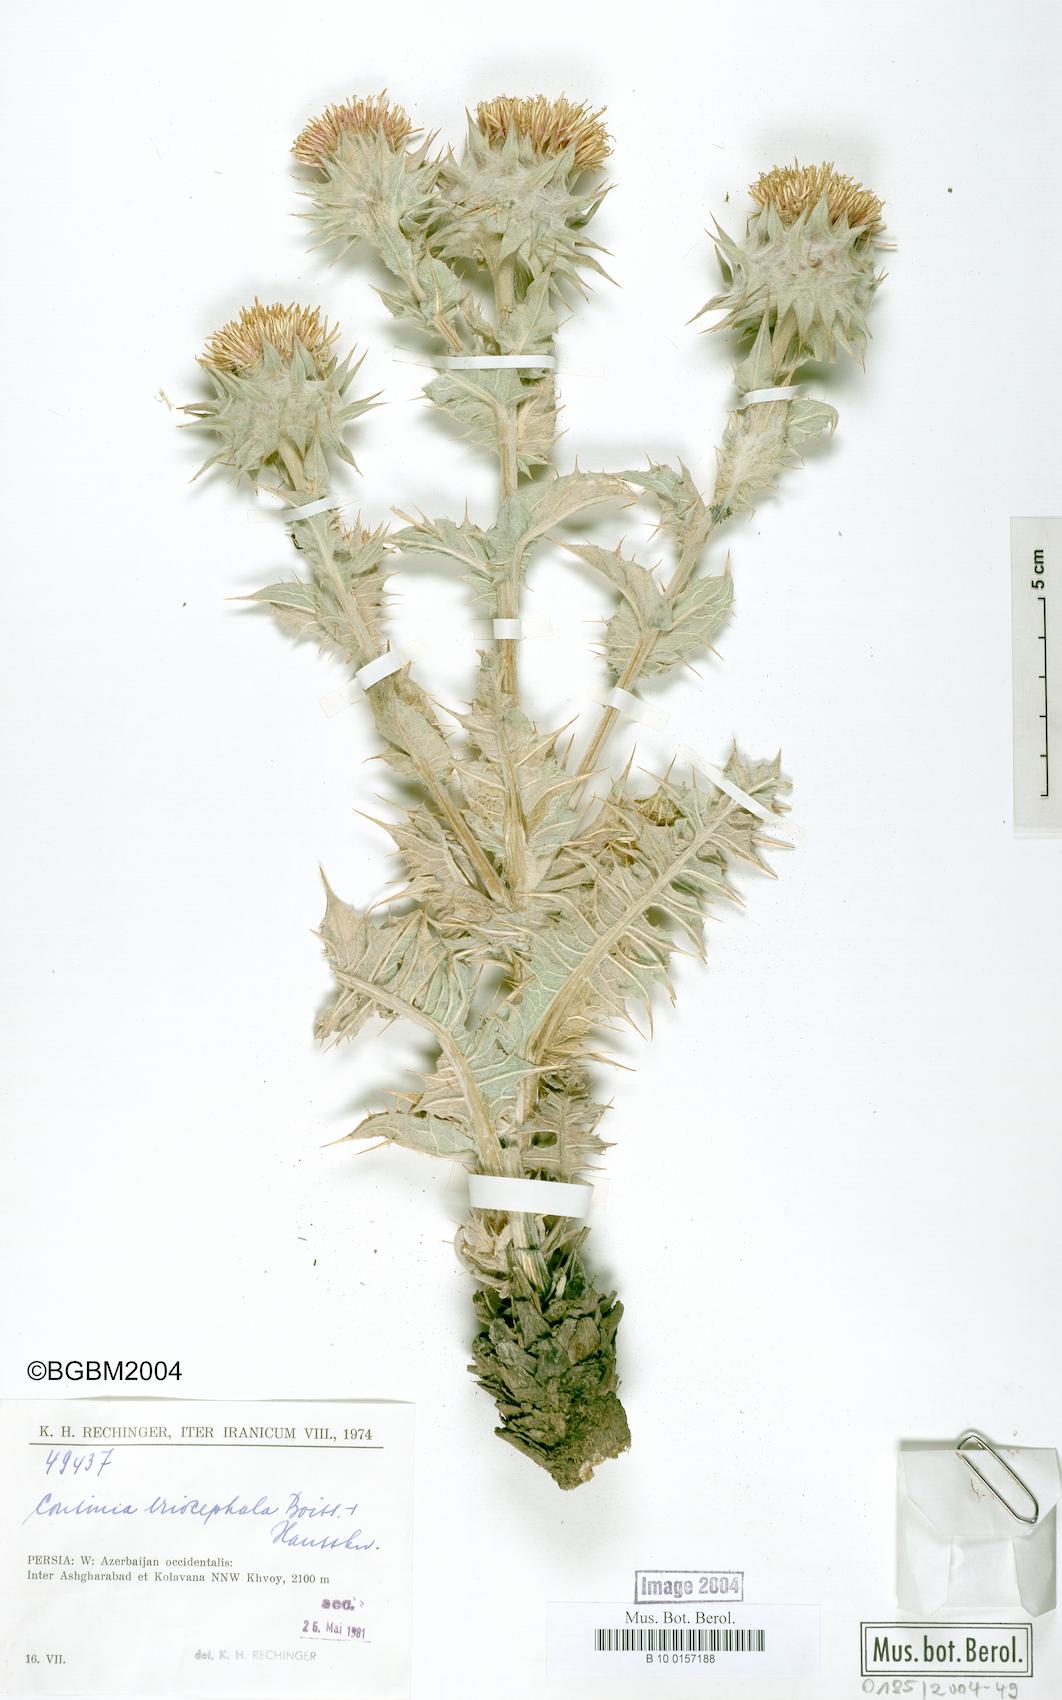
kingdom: Plantae
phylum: Tracheophyta
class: Magnoliopsida
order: Asterales
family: Asteraceae
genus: Cousinia
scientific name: Cousinia canescens
